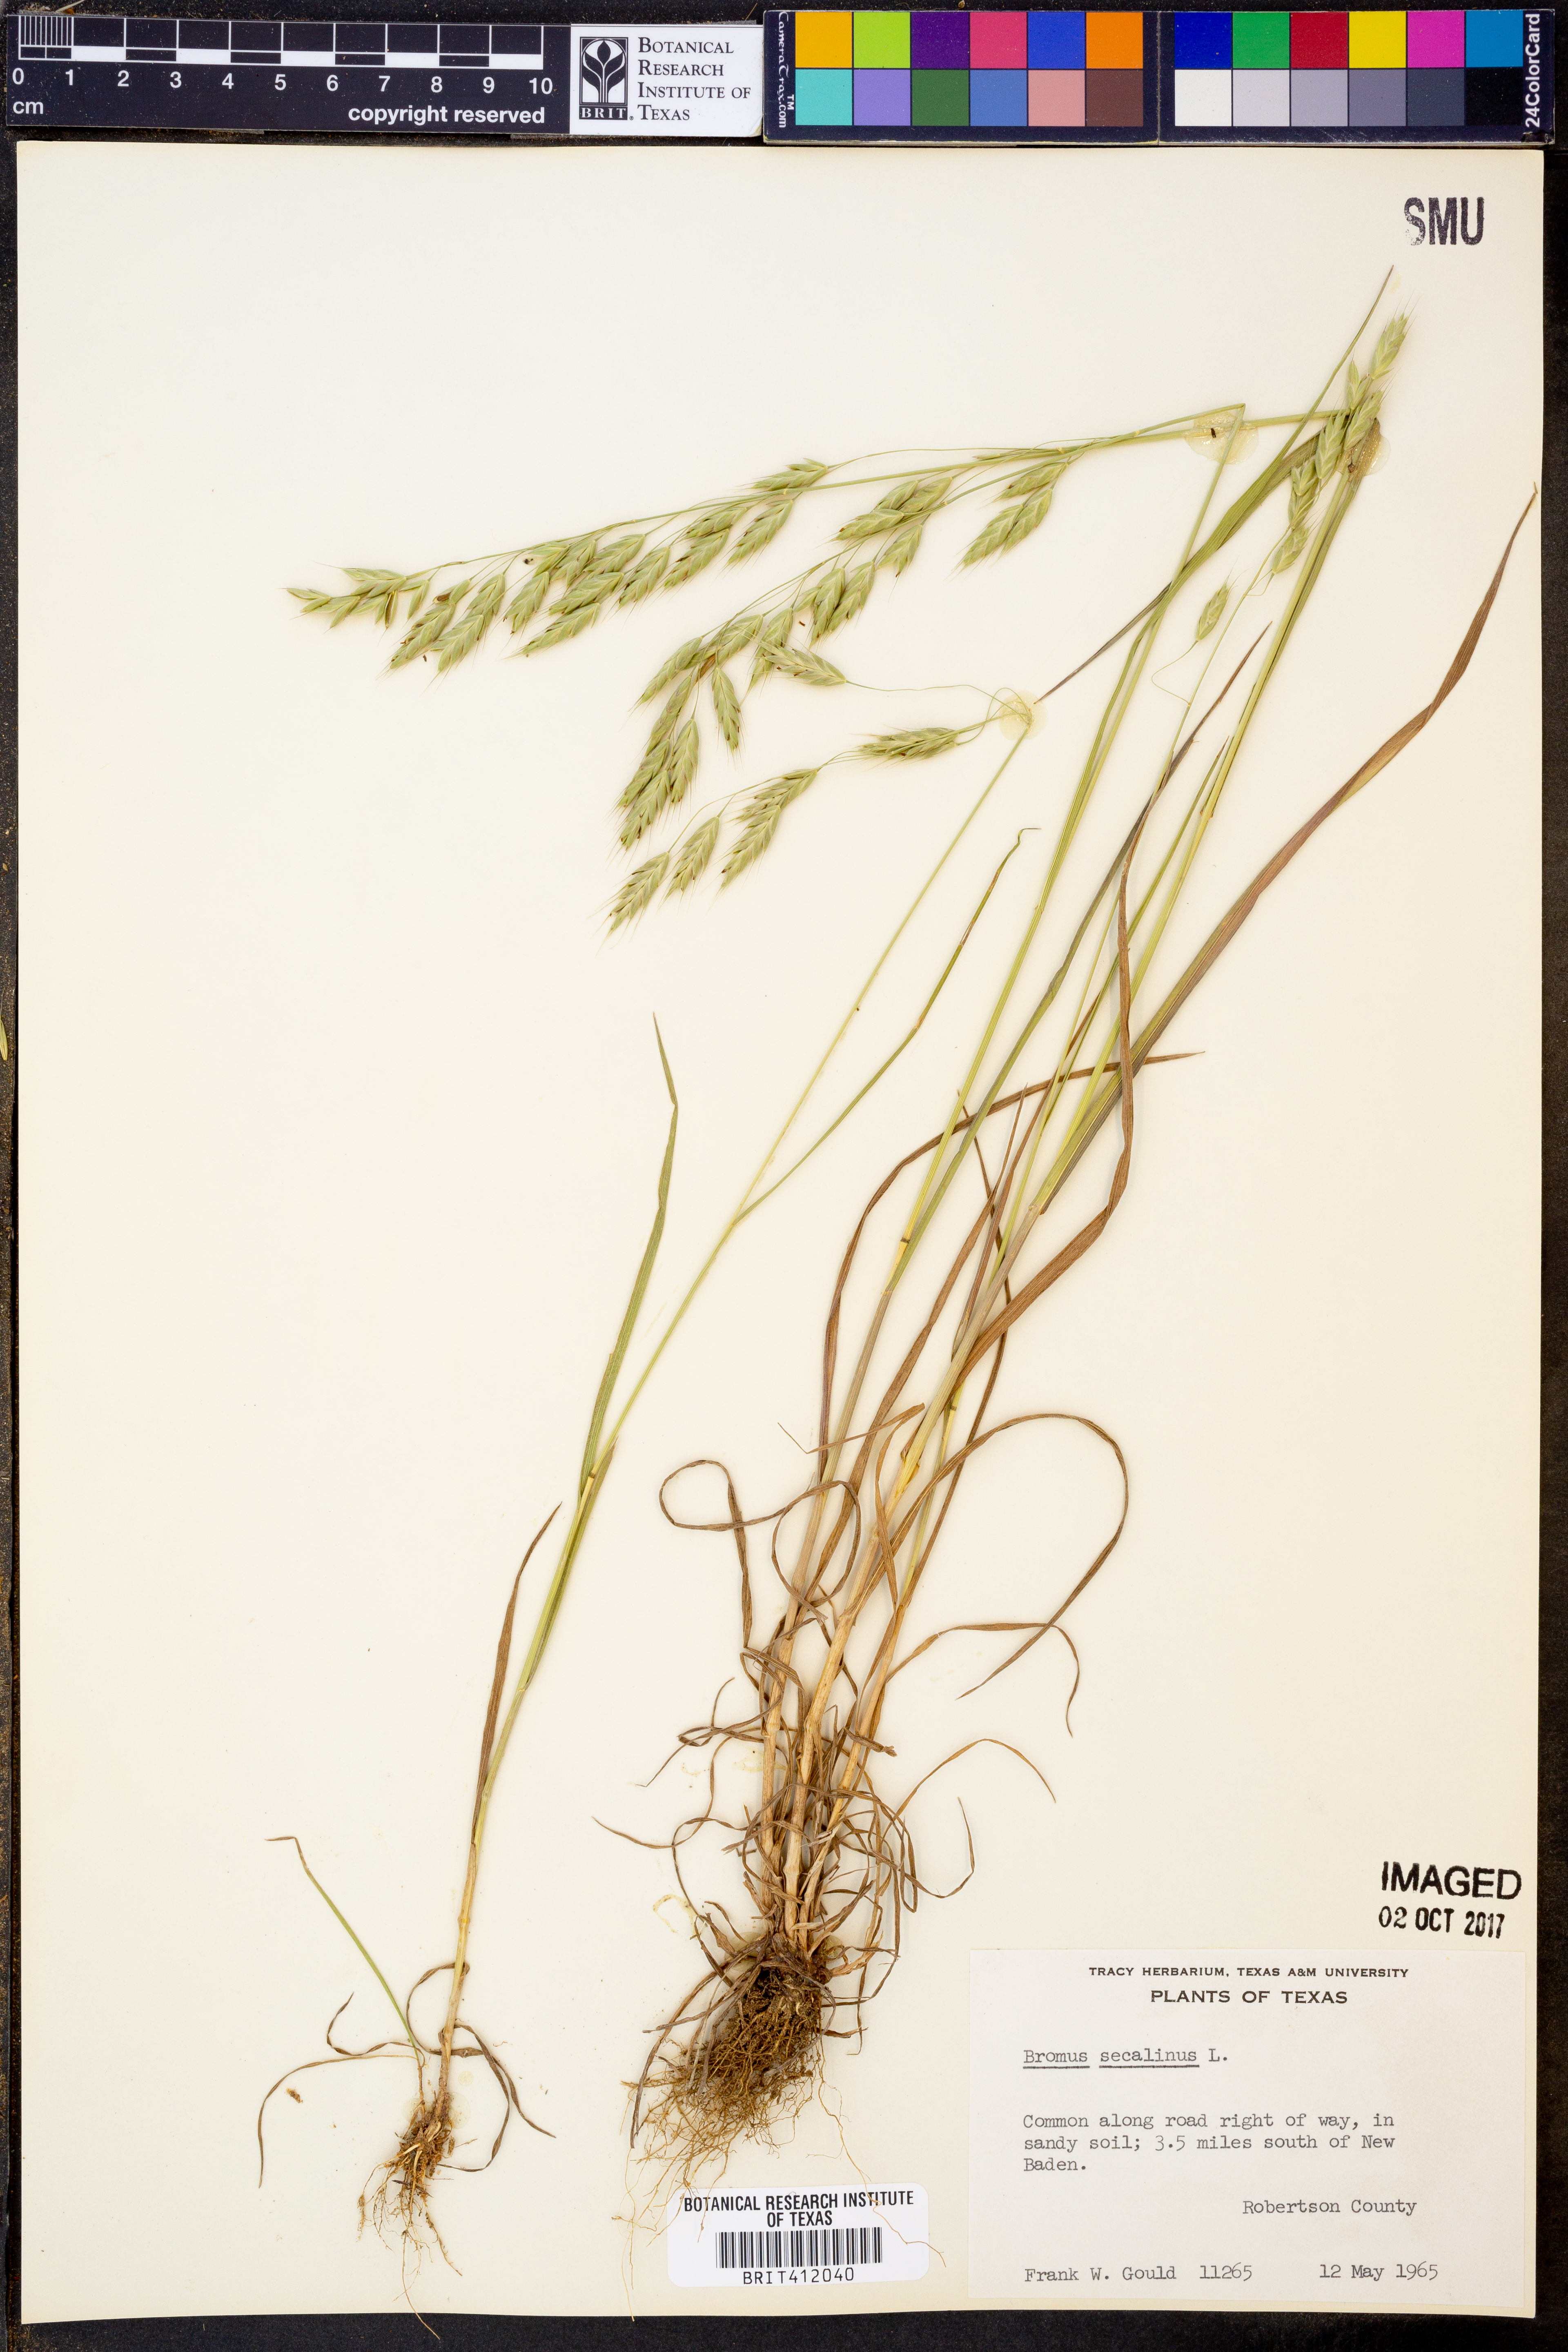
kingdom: Plantae
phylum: Tracheophyta
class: Liliopsida
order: Poales
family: Poaceae
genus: Bromus
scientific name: Bromus secalinus
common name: Rye brome
